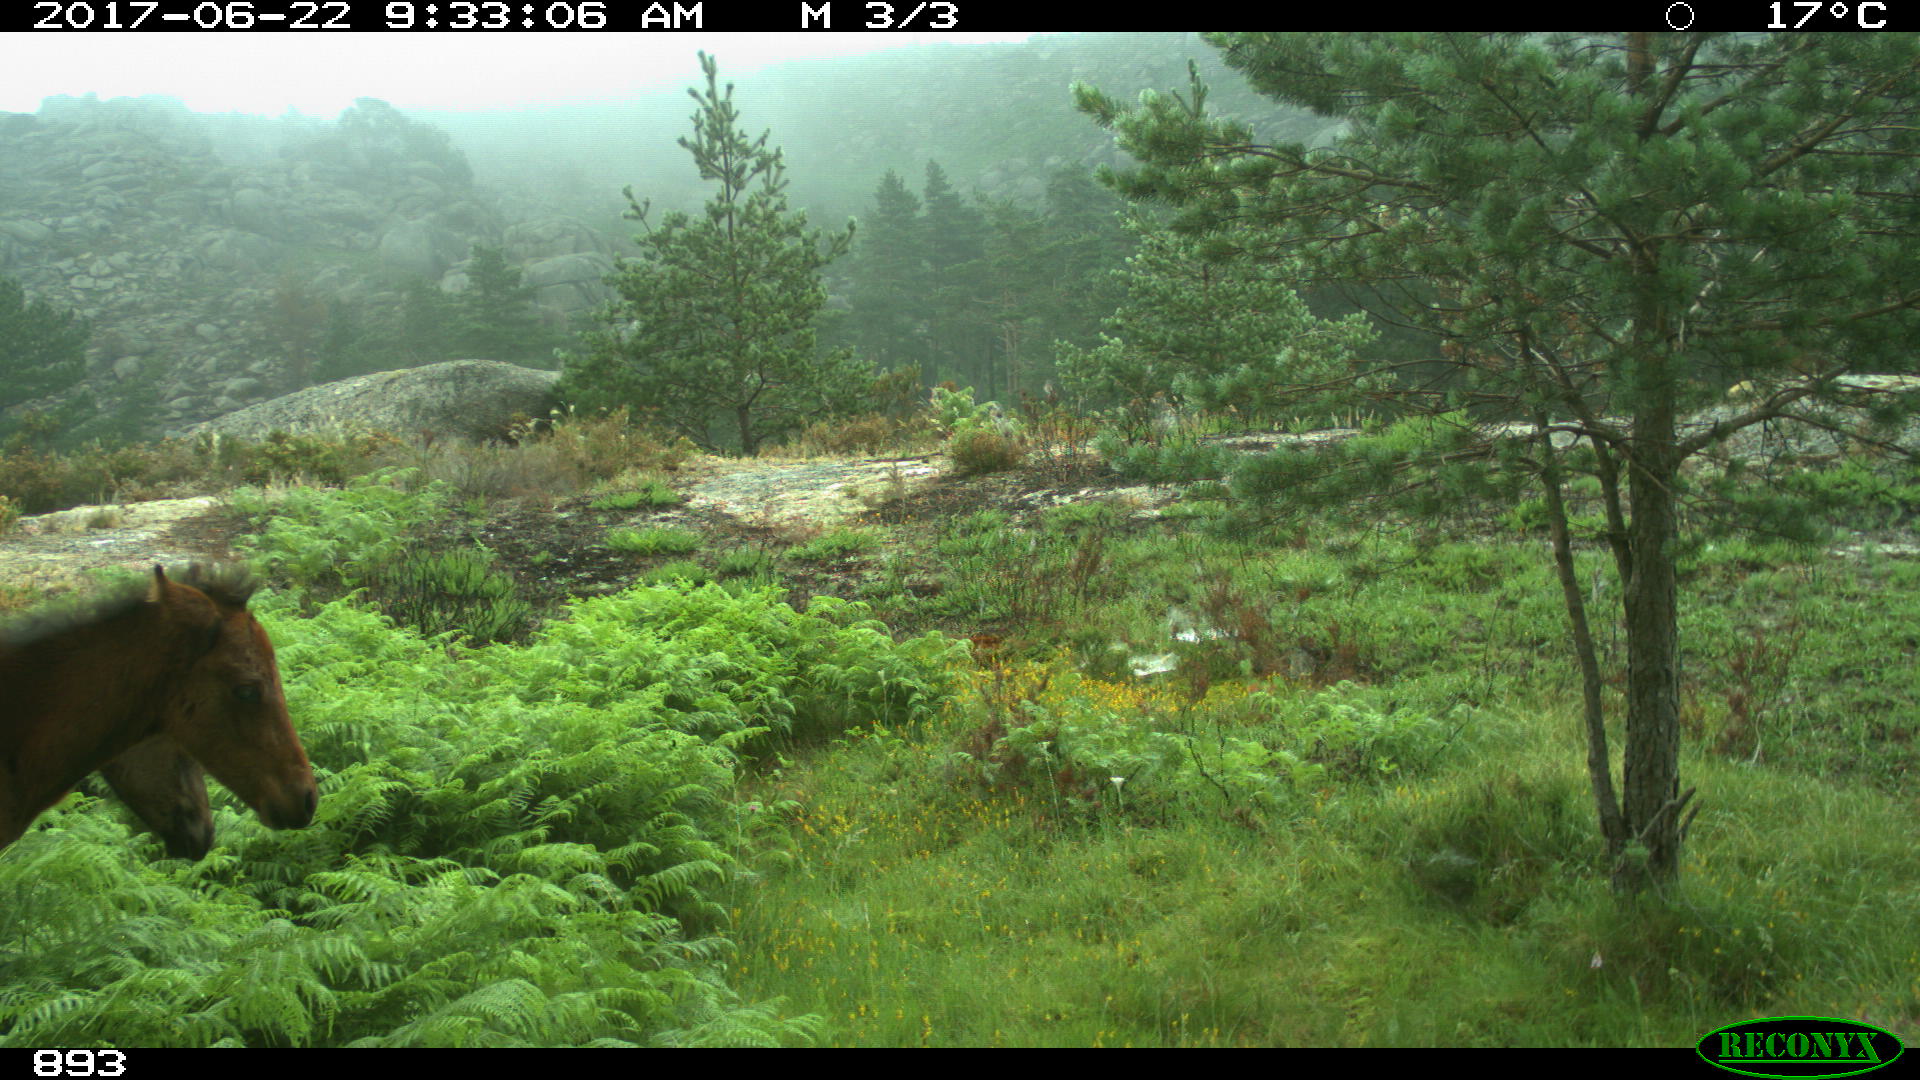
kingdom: Animalia
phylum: Chordata
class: Mammalia
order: Perissodactyla
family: Equidae
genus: Equus
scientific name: Equus caballus
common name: Horse
